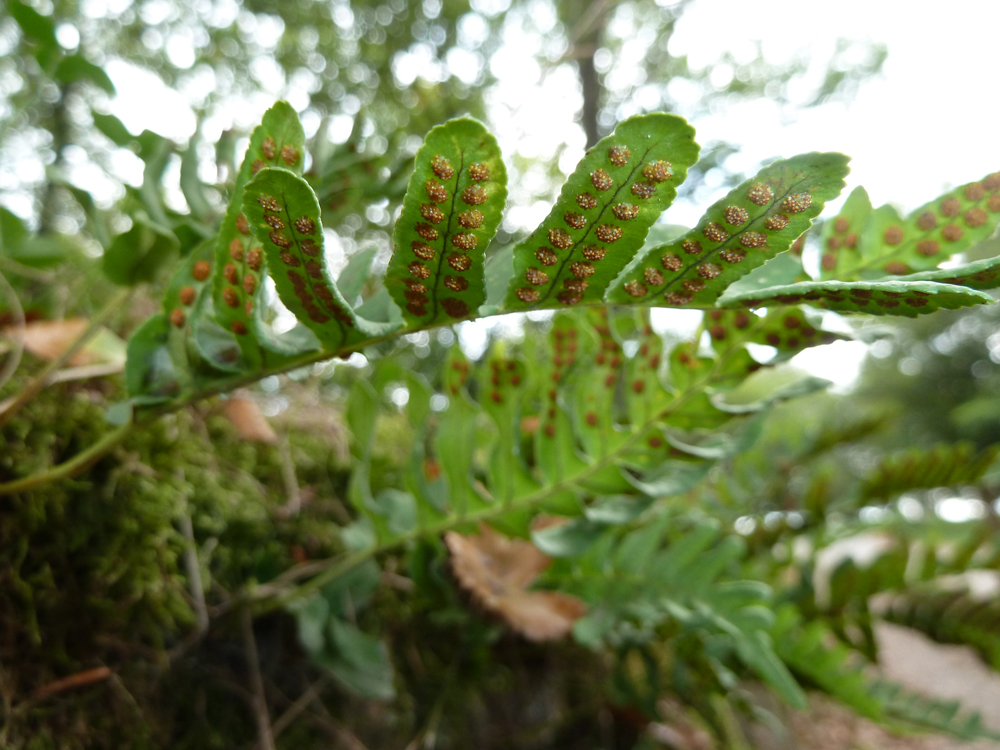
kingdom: Plantae
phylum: Tracheophyta
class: Polypodiopsida
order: Polypodiales
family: Polypodiaceae
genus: Polypodium
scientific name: Polypodium vulgare
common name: Common polypody
